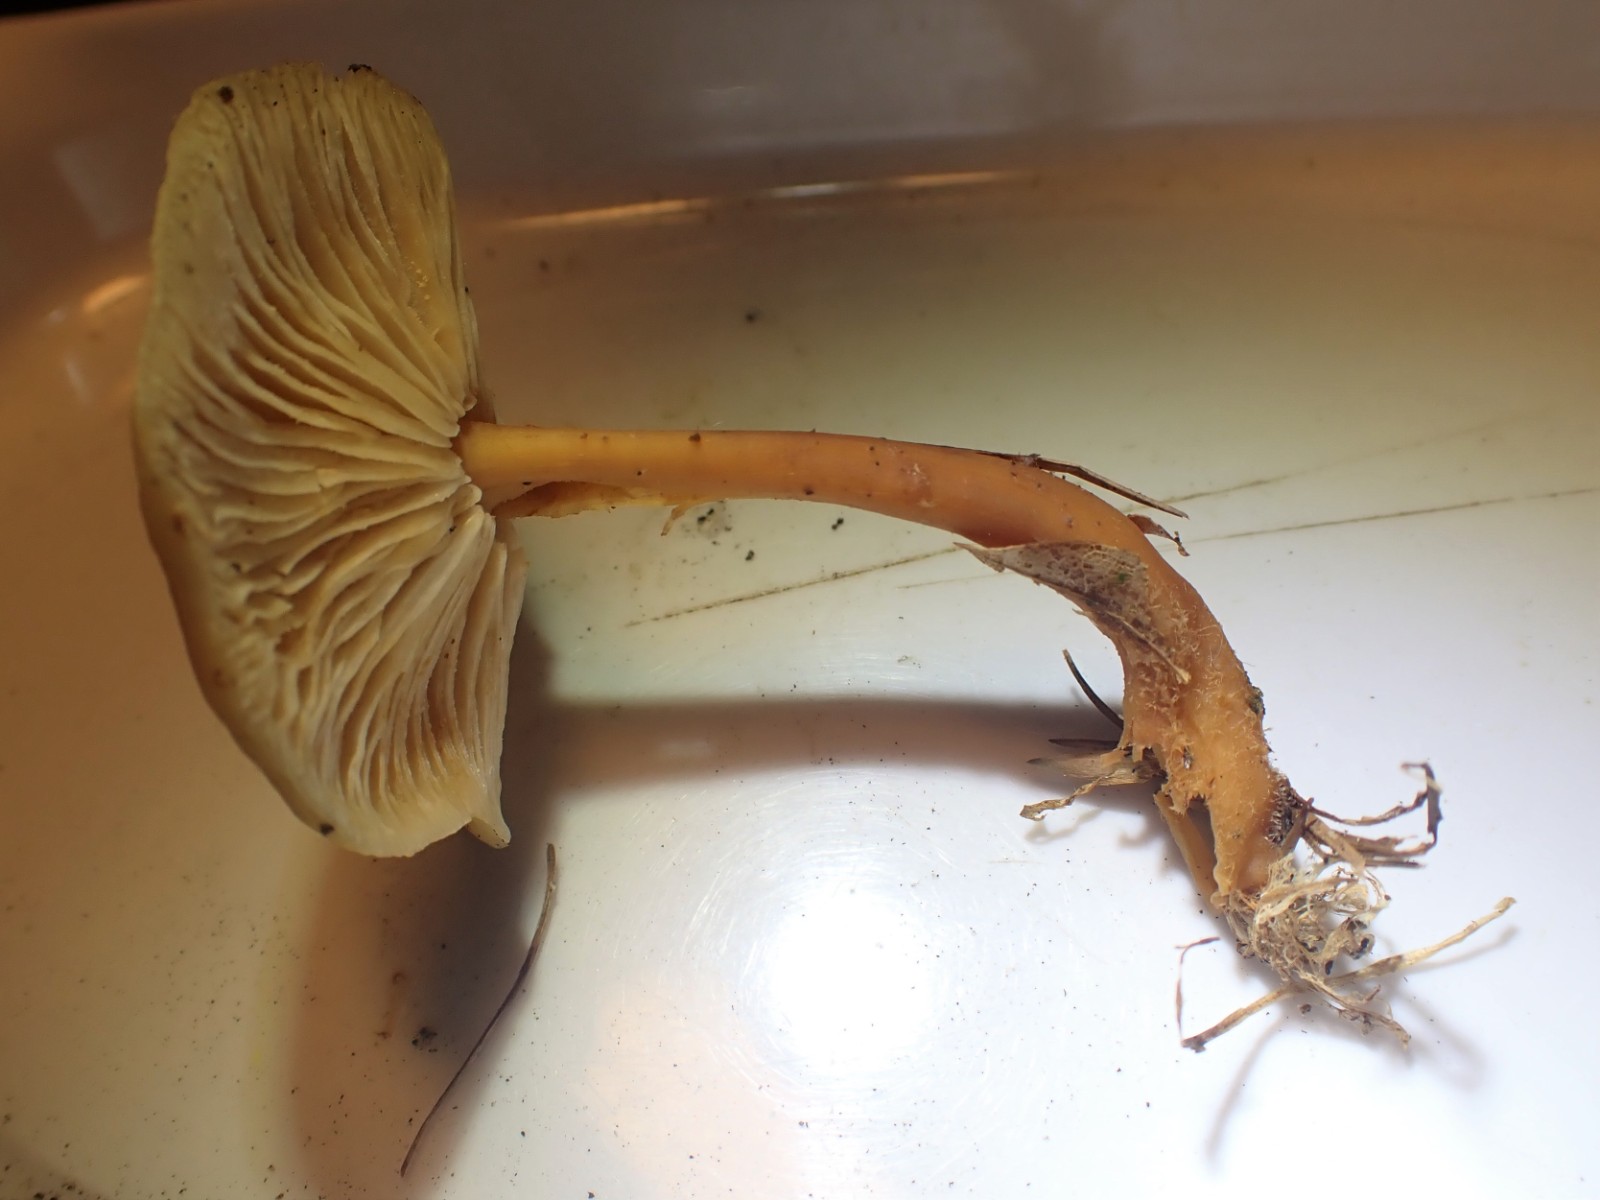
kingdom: Fungi
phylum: Basidiomycota
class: Agaricomycetes
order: Agaricales
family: Omphalotaceae
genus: Gymnopus
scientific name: Gymnopus dryophilus
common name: løv-fladhat
